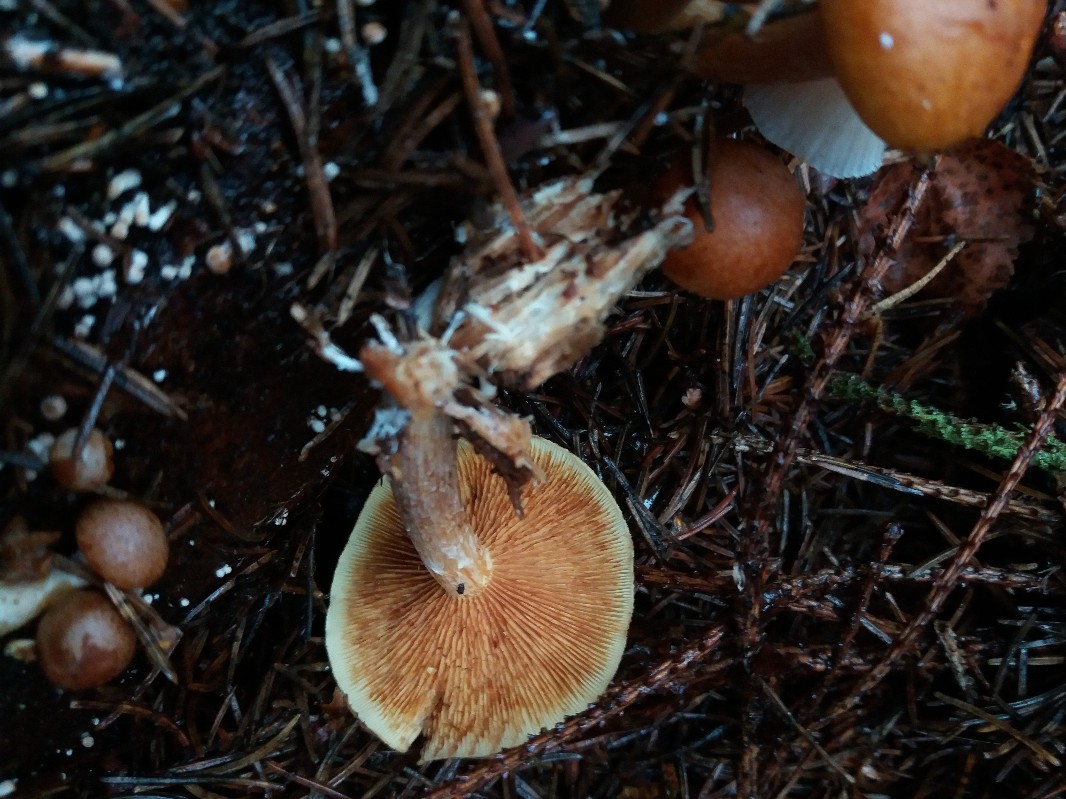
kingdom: Fungi
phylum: Basidiomycota
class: Agaricomycetes
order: Agaricales
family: Hymenogastraceae
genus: Gymnopilus
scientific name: Gymnopilus penetrans
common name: plettet flammehat
